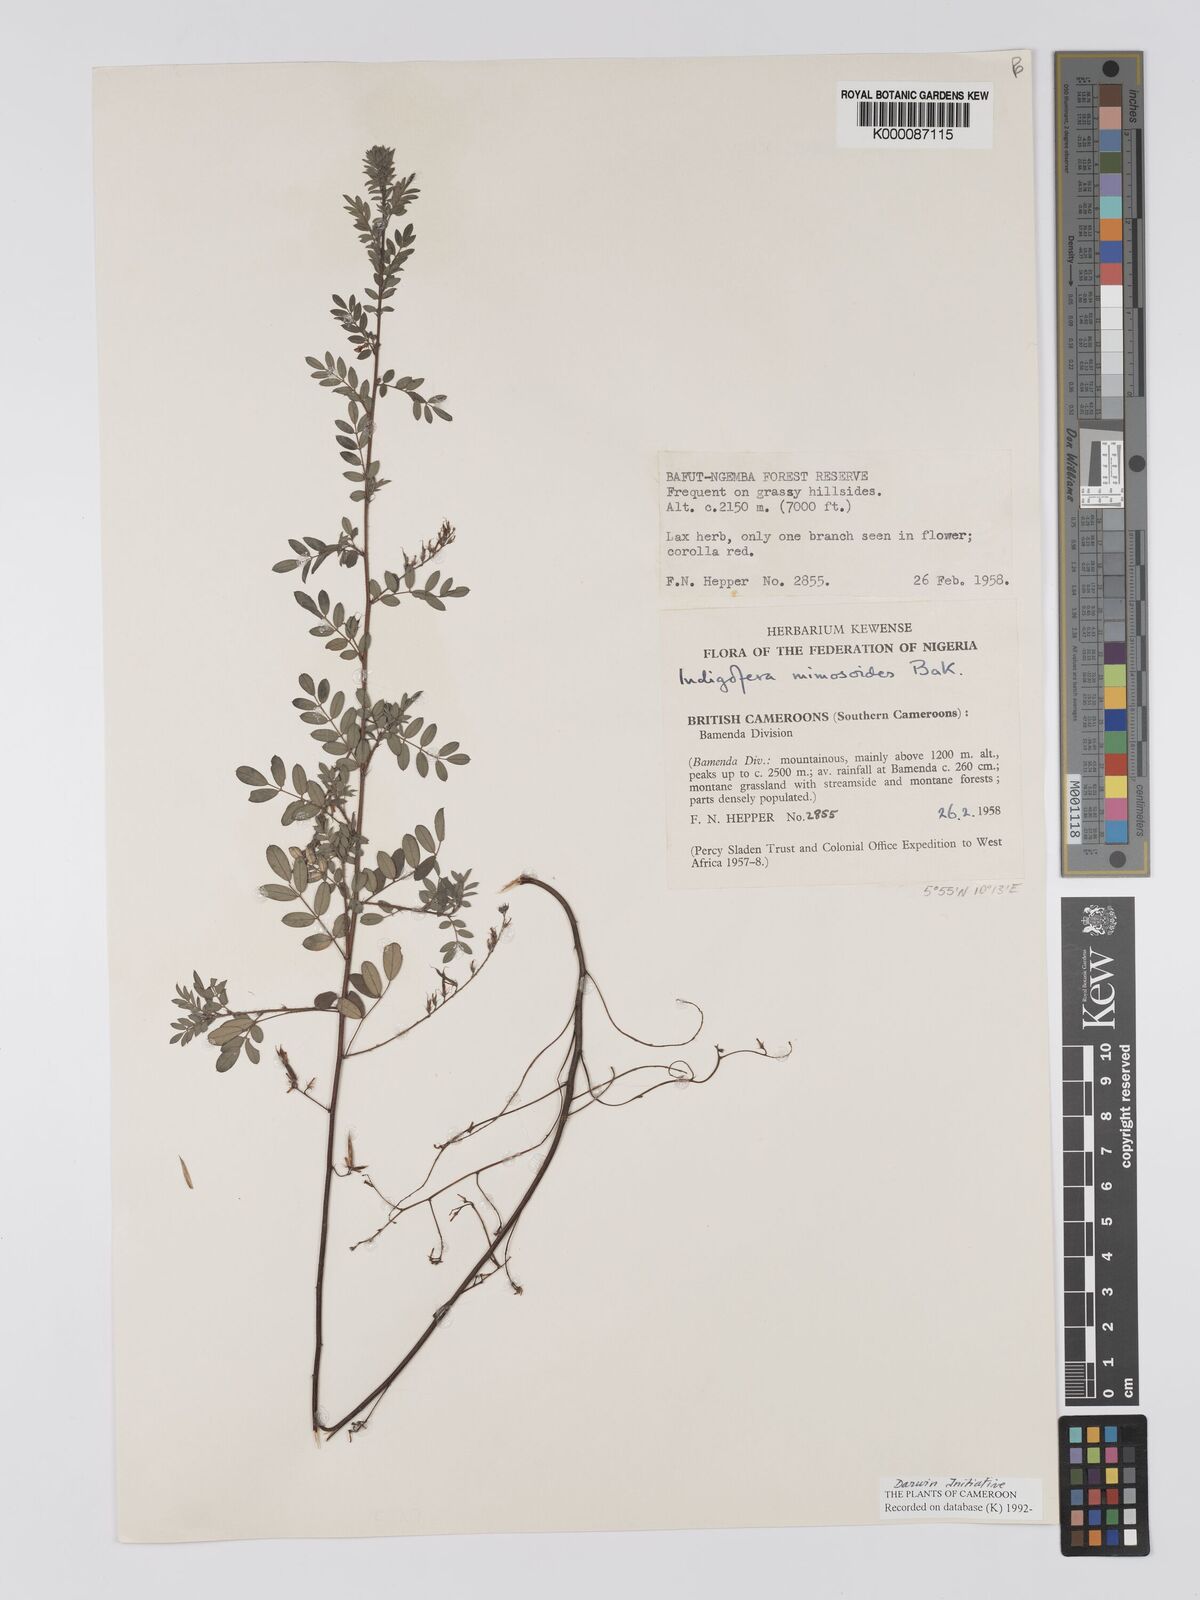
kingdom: Plantae
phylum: Tracheophyta
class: Magnoliopsida
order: Fabales
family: Fabaceae
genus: Indigofera
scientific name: Indigofera mimosoides
